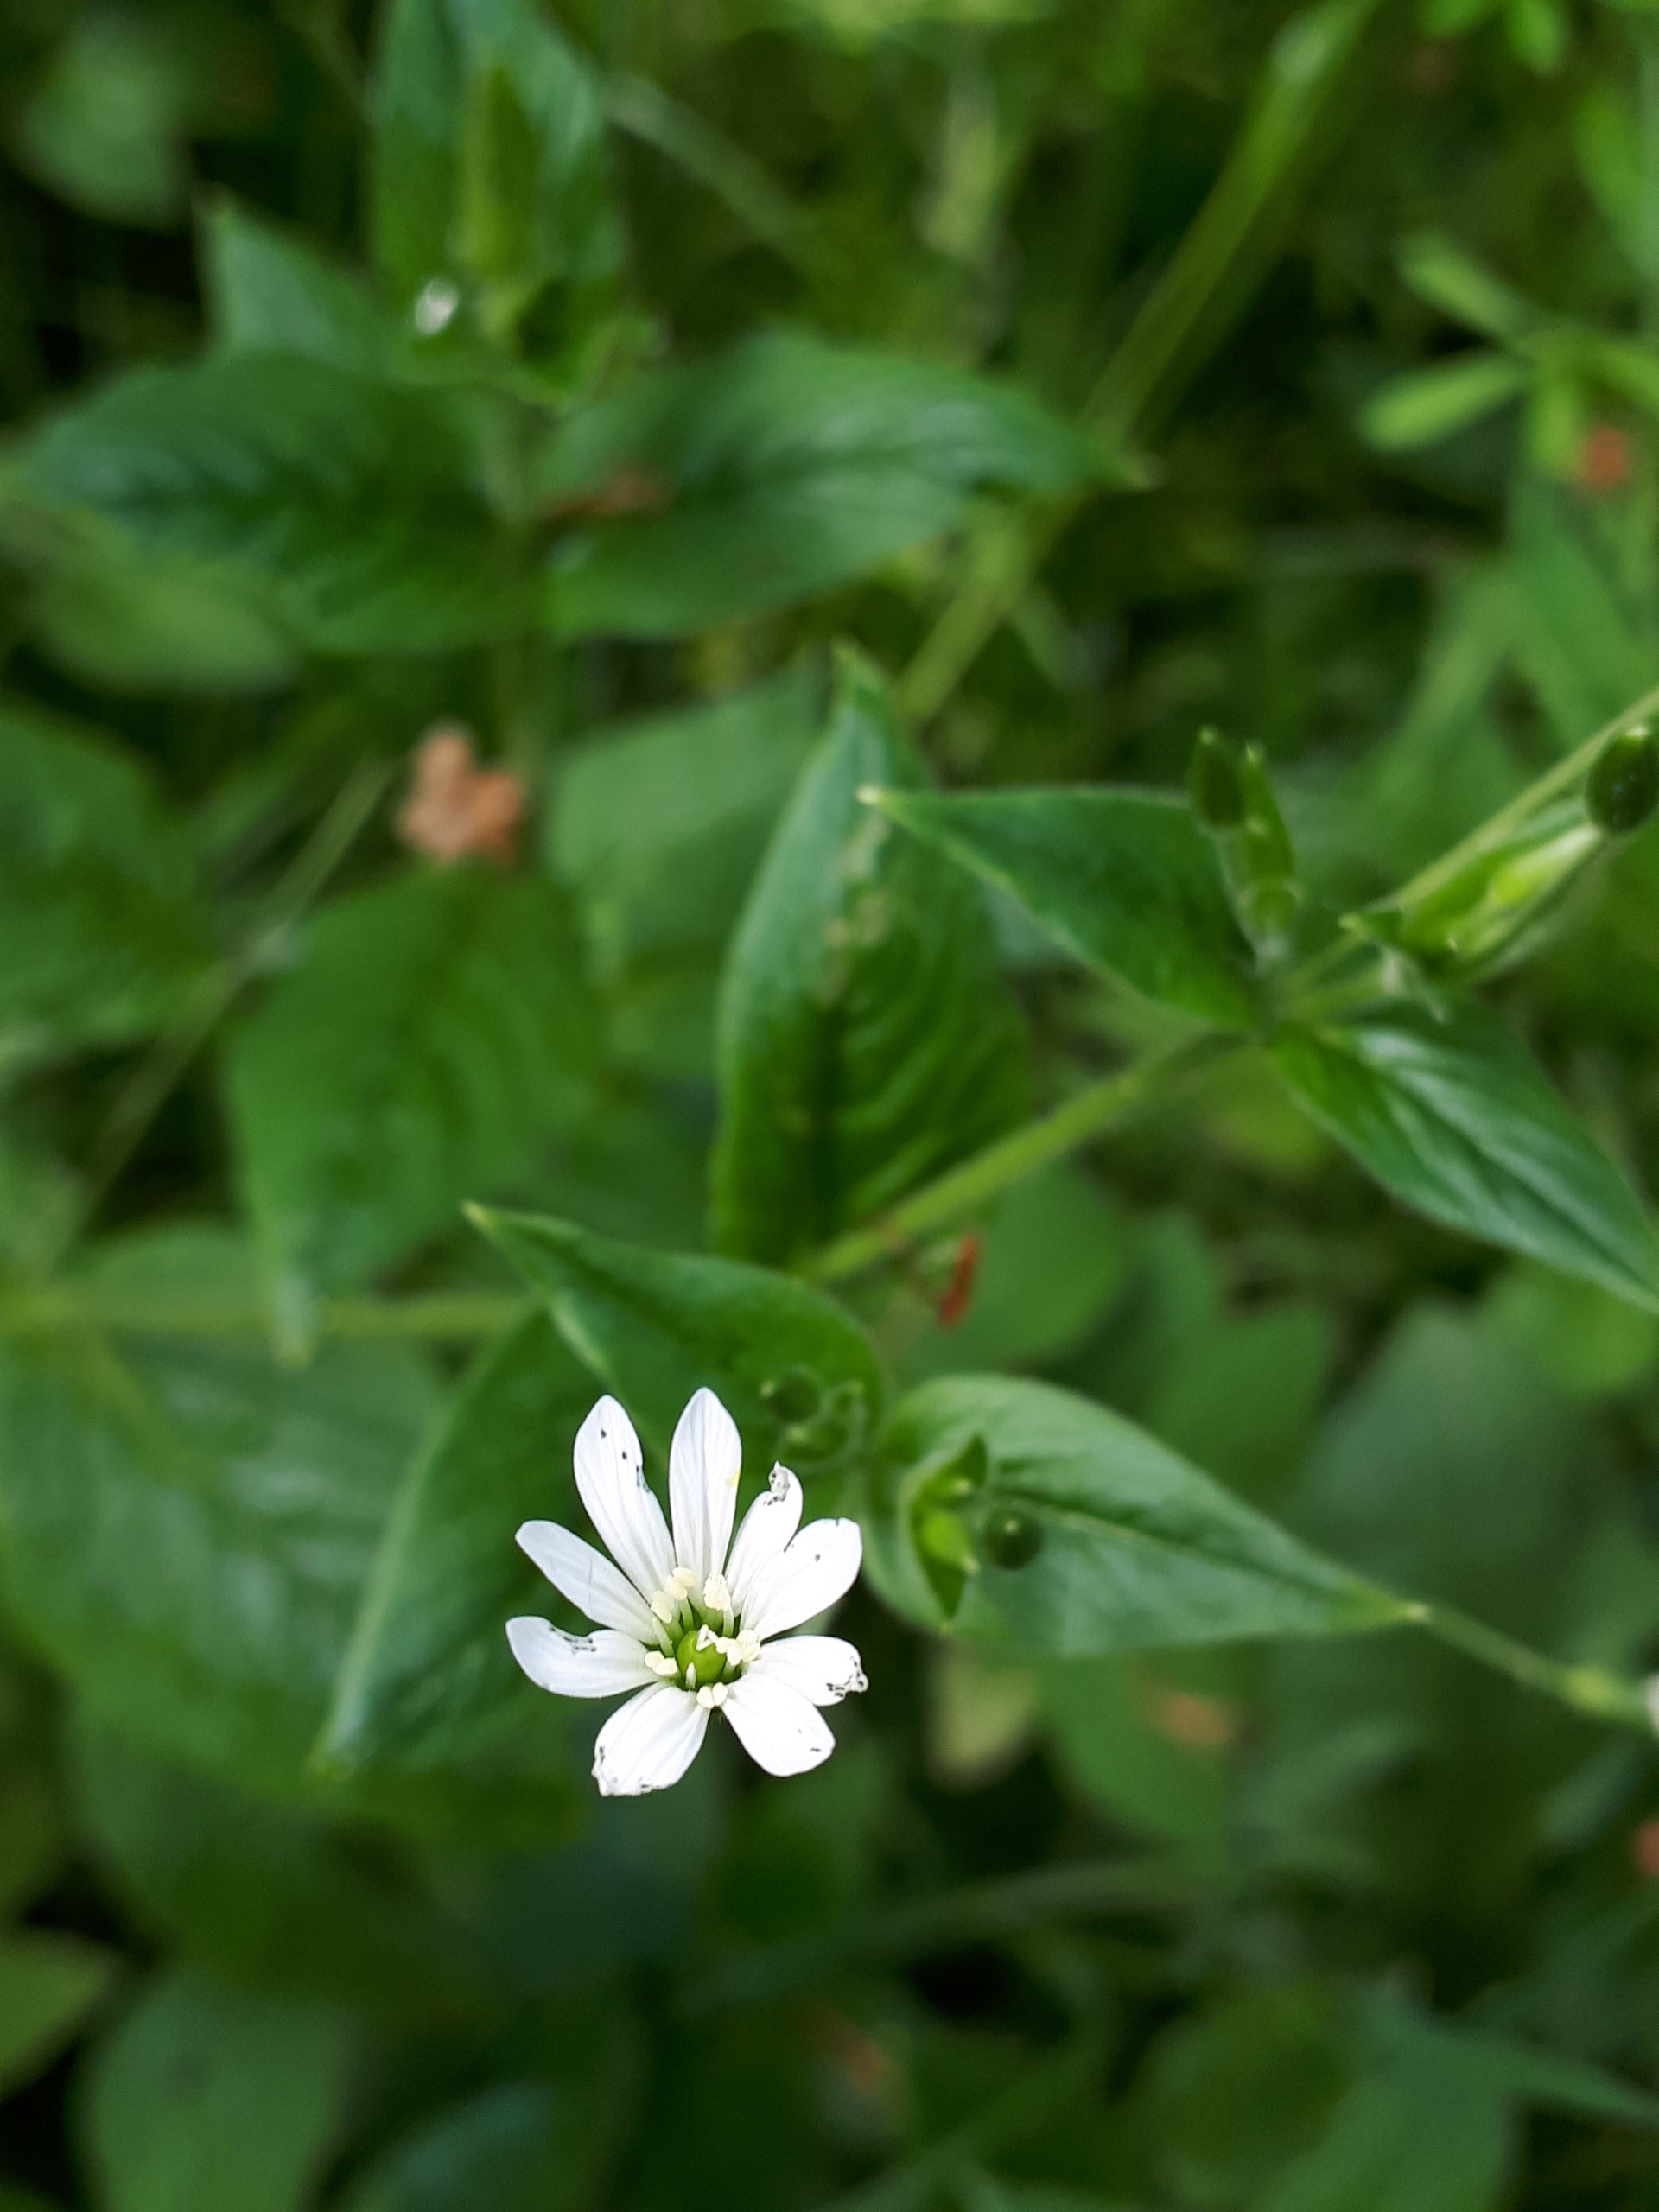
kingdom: Plantae
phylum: Tracheophyta
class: Magnoliopsida
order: Caryophyllales
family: Caryophyllaceae
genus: Stellaria
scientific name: Stellaria nemorum
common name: Lund-fladstjerne
